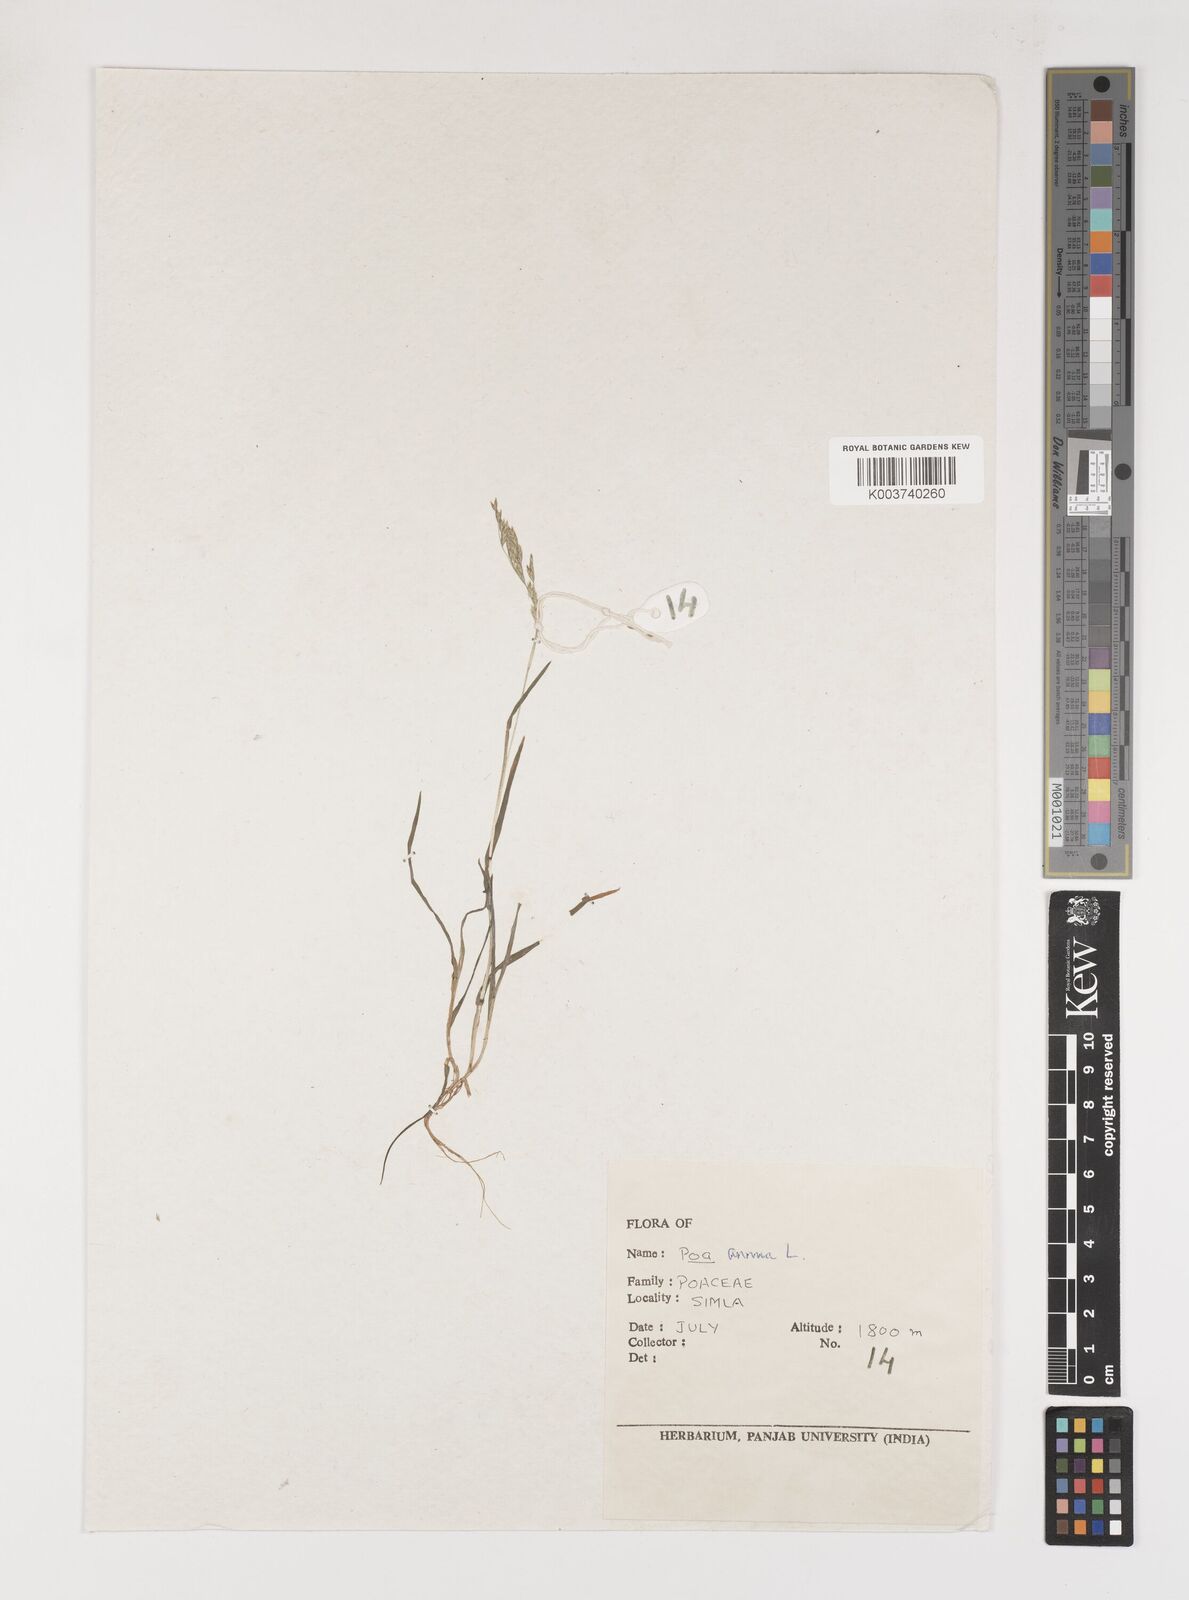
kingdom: Plantae
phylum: Tracheophyta
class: Liliopsida
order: Poales
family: Poaceae
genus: Poa
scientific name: Poa annua
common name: Annual bluegrass
